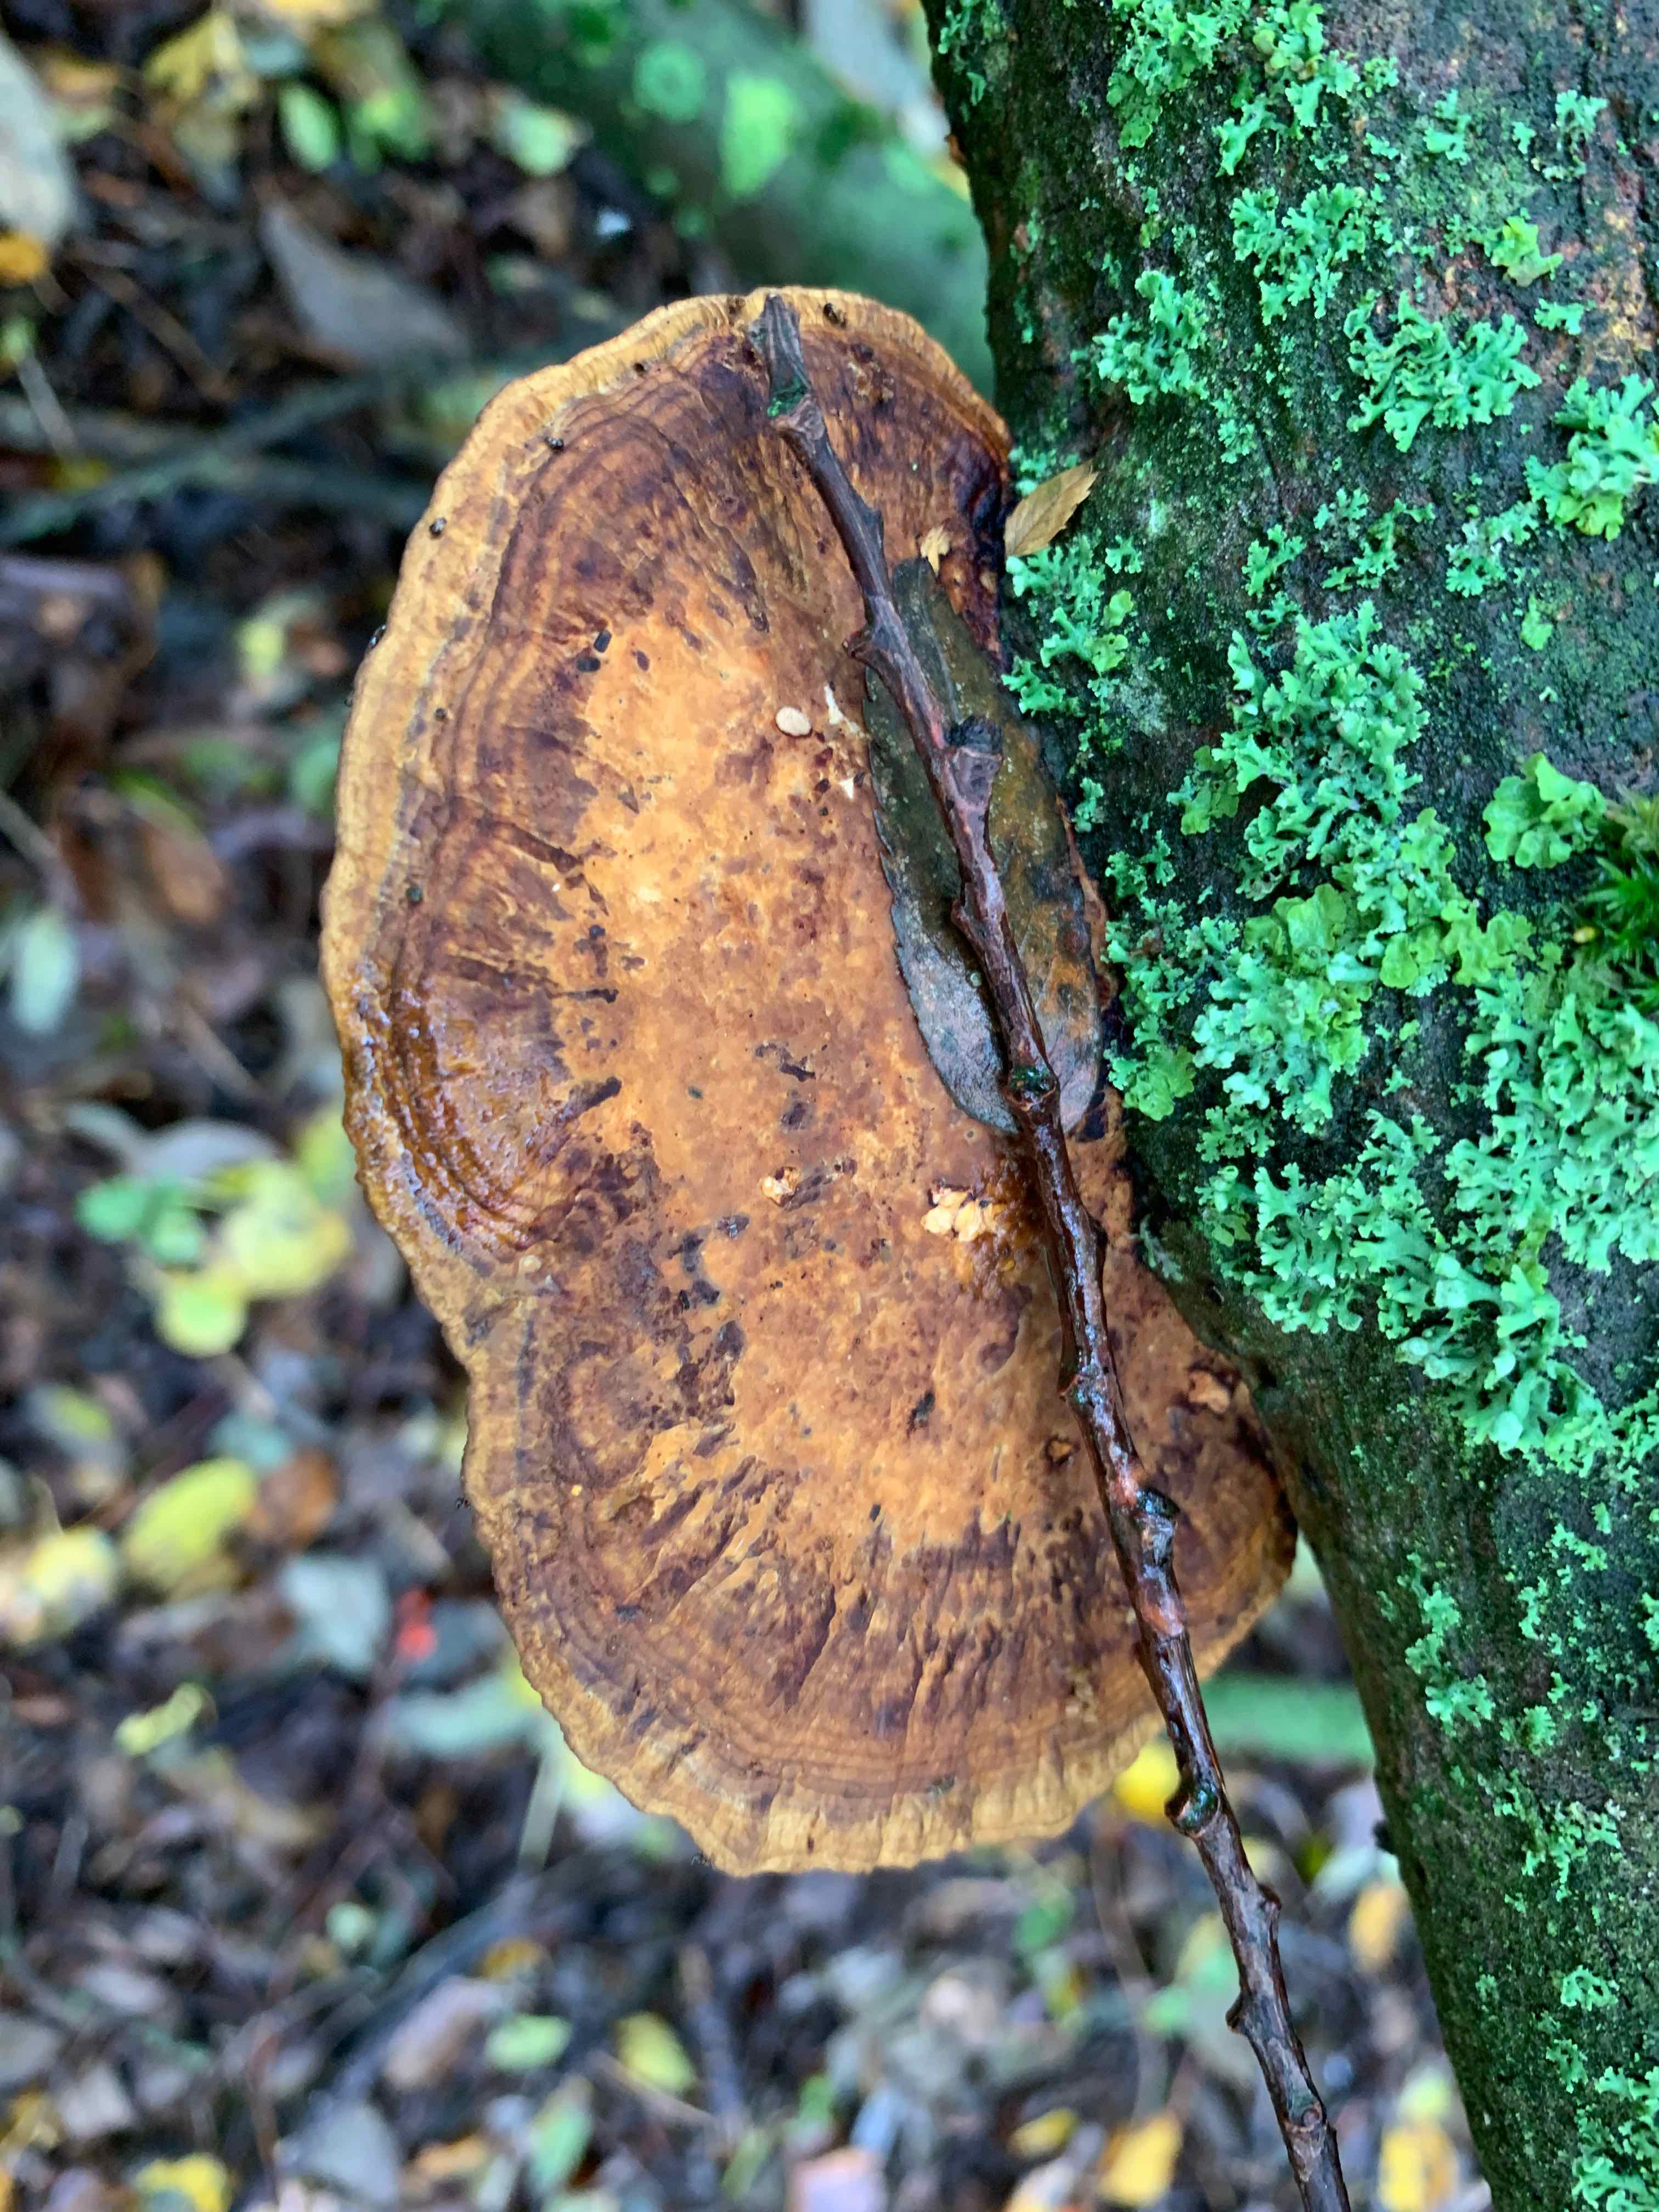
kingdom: Fungi
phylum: Basidiomycota
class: Agaricomycetes
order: Polyporales
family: Polyporaceae
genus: Daedaleopsis
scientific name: Daedaleopsis confragosa
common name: rødmende læderporesvamp
